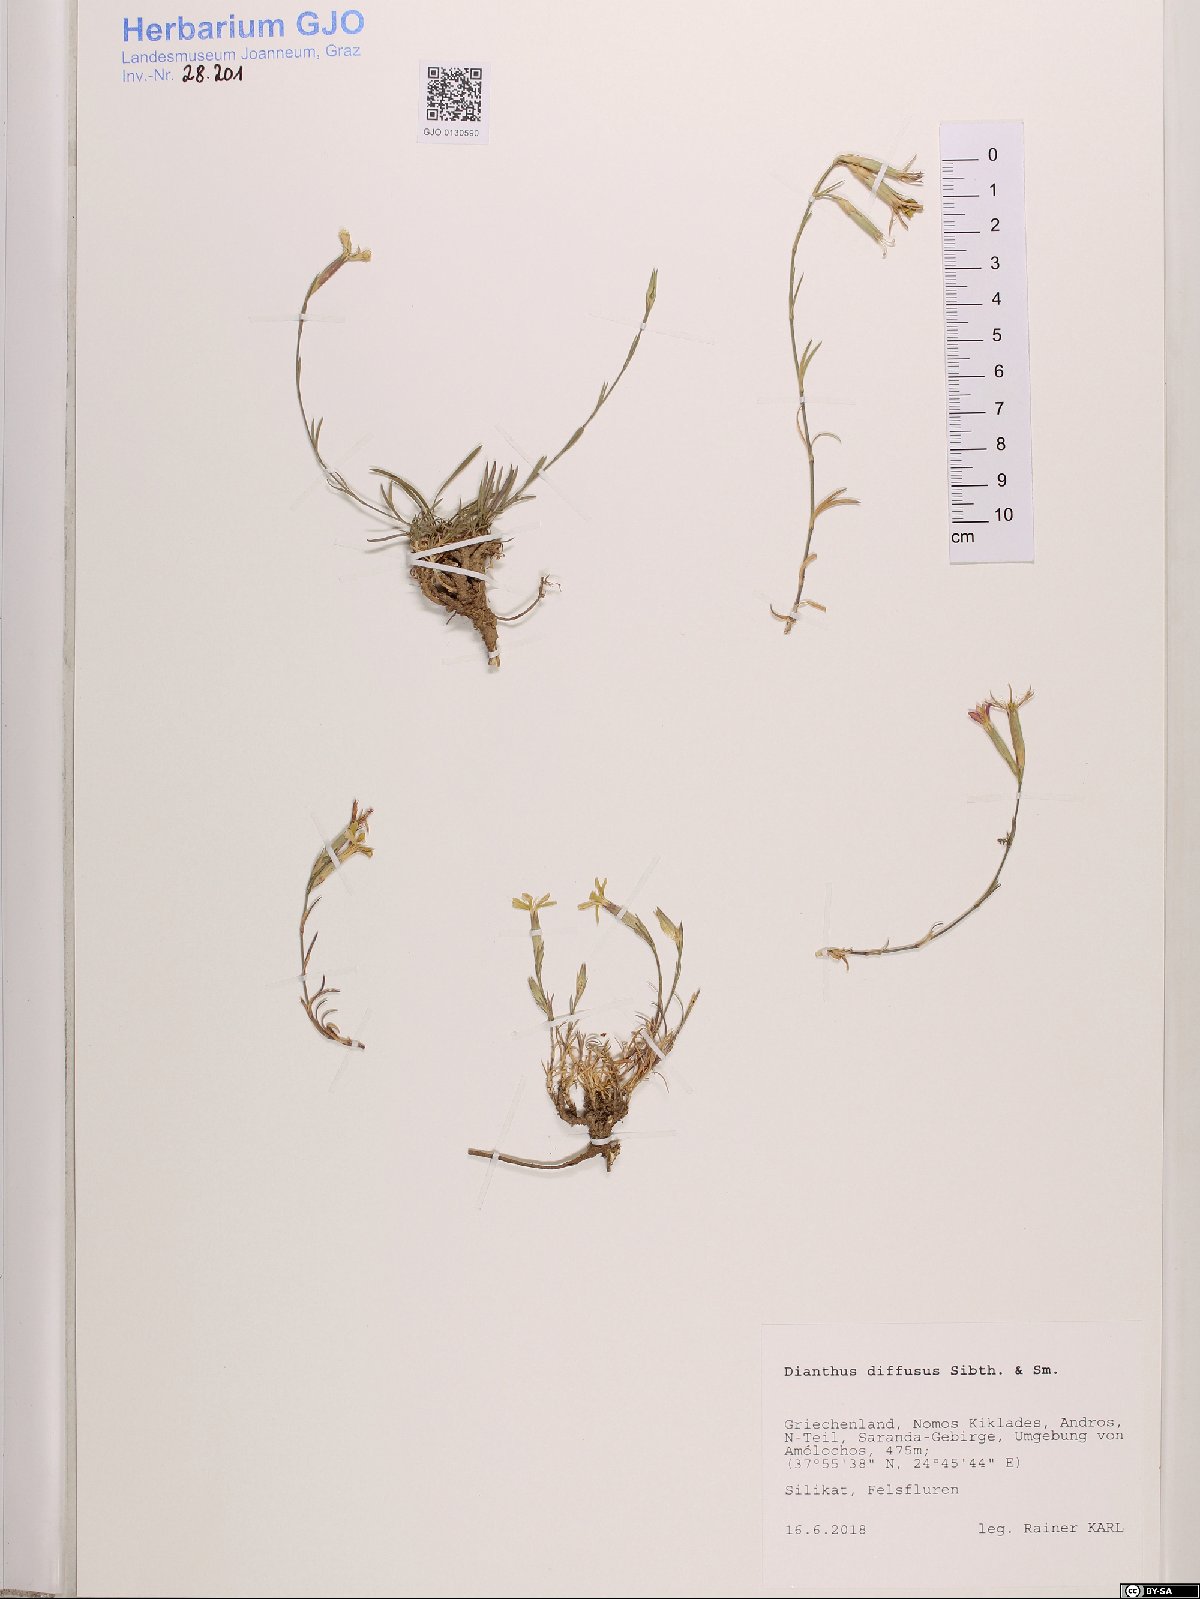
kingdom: Plantae
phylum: Tracheophyta
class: Magnoliopsida
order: Caryophyllales
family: Caryophyllaceae
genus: Dianthus
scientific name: Dianthus diffusus
